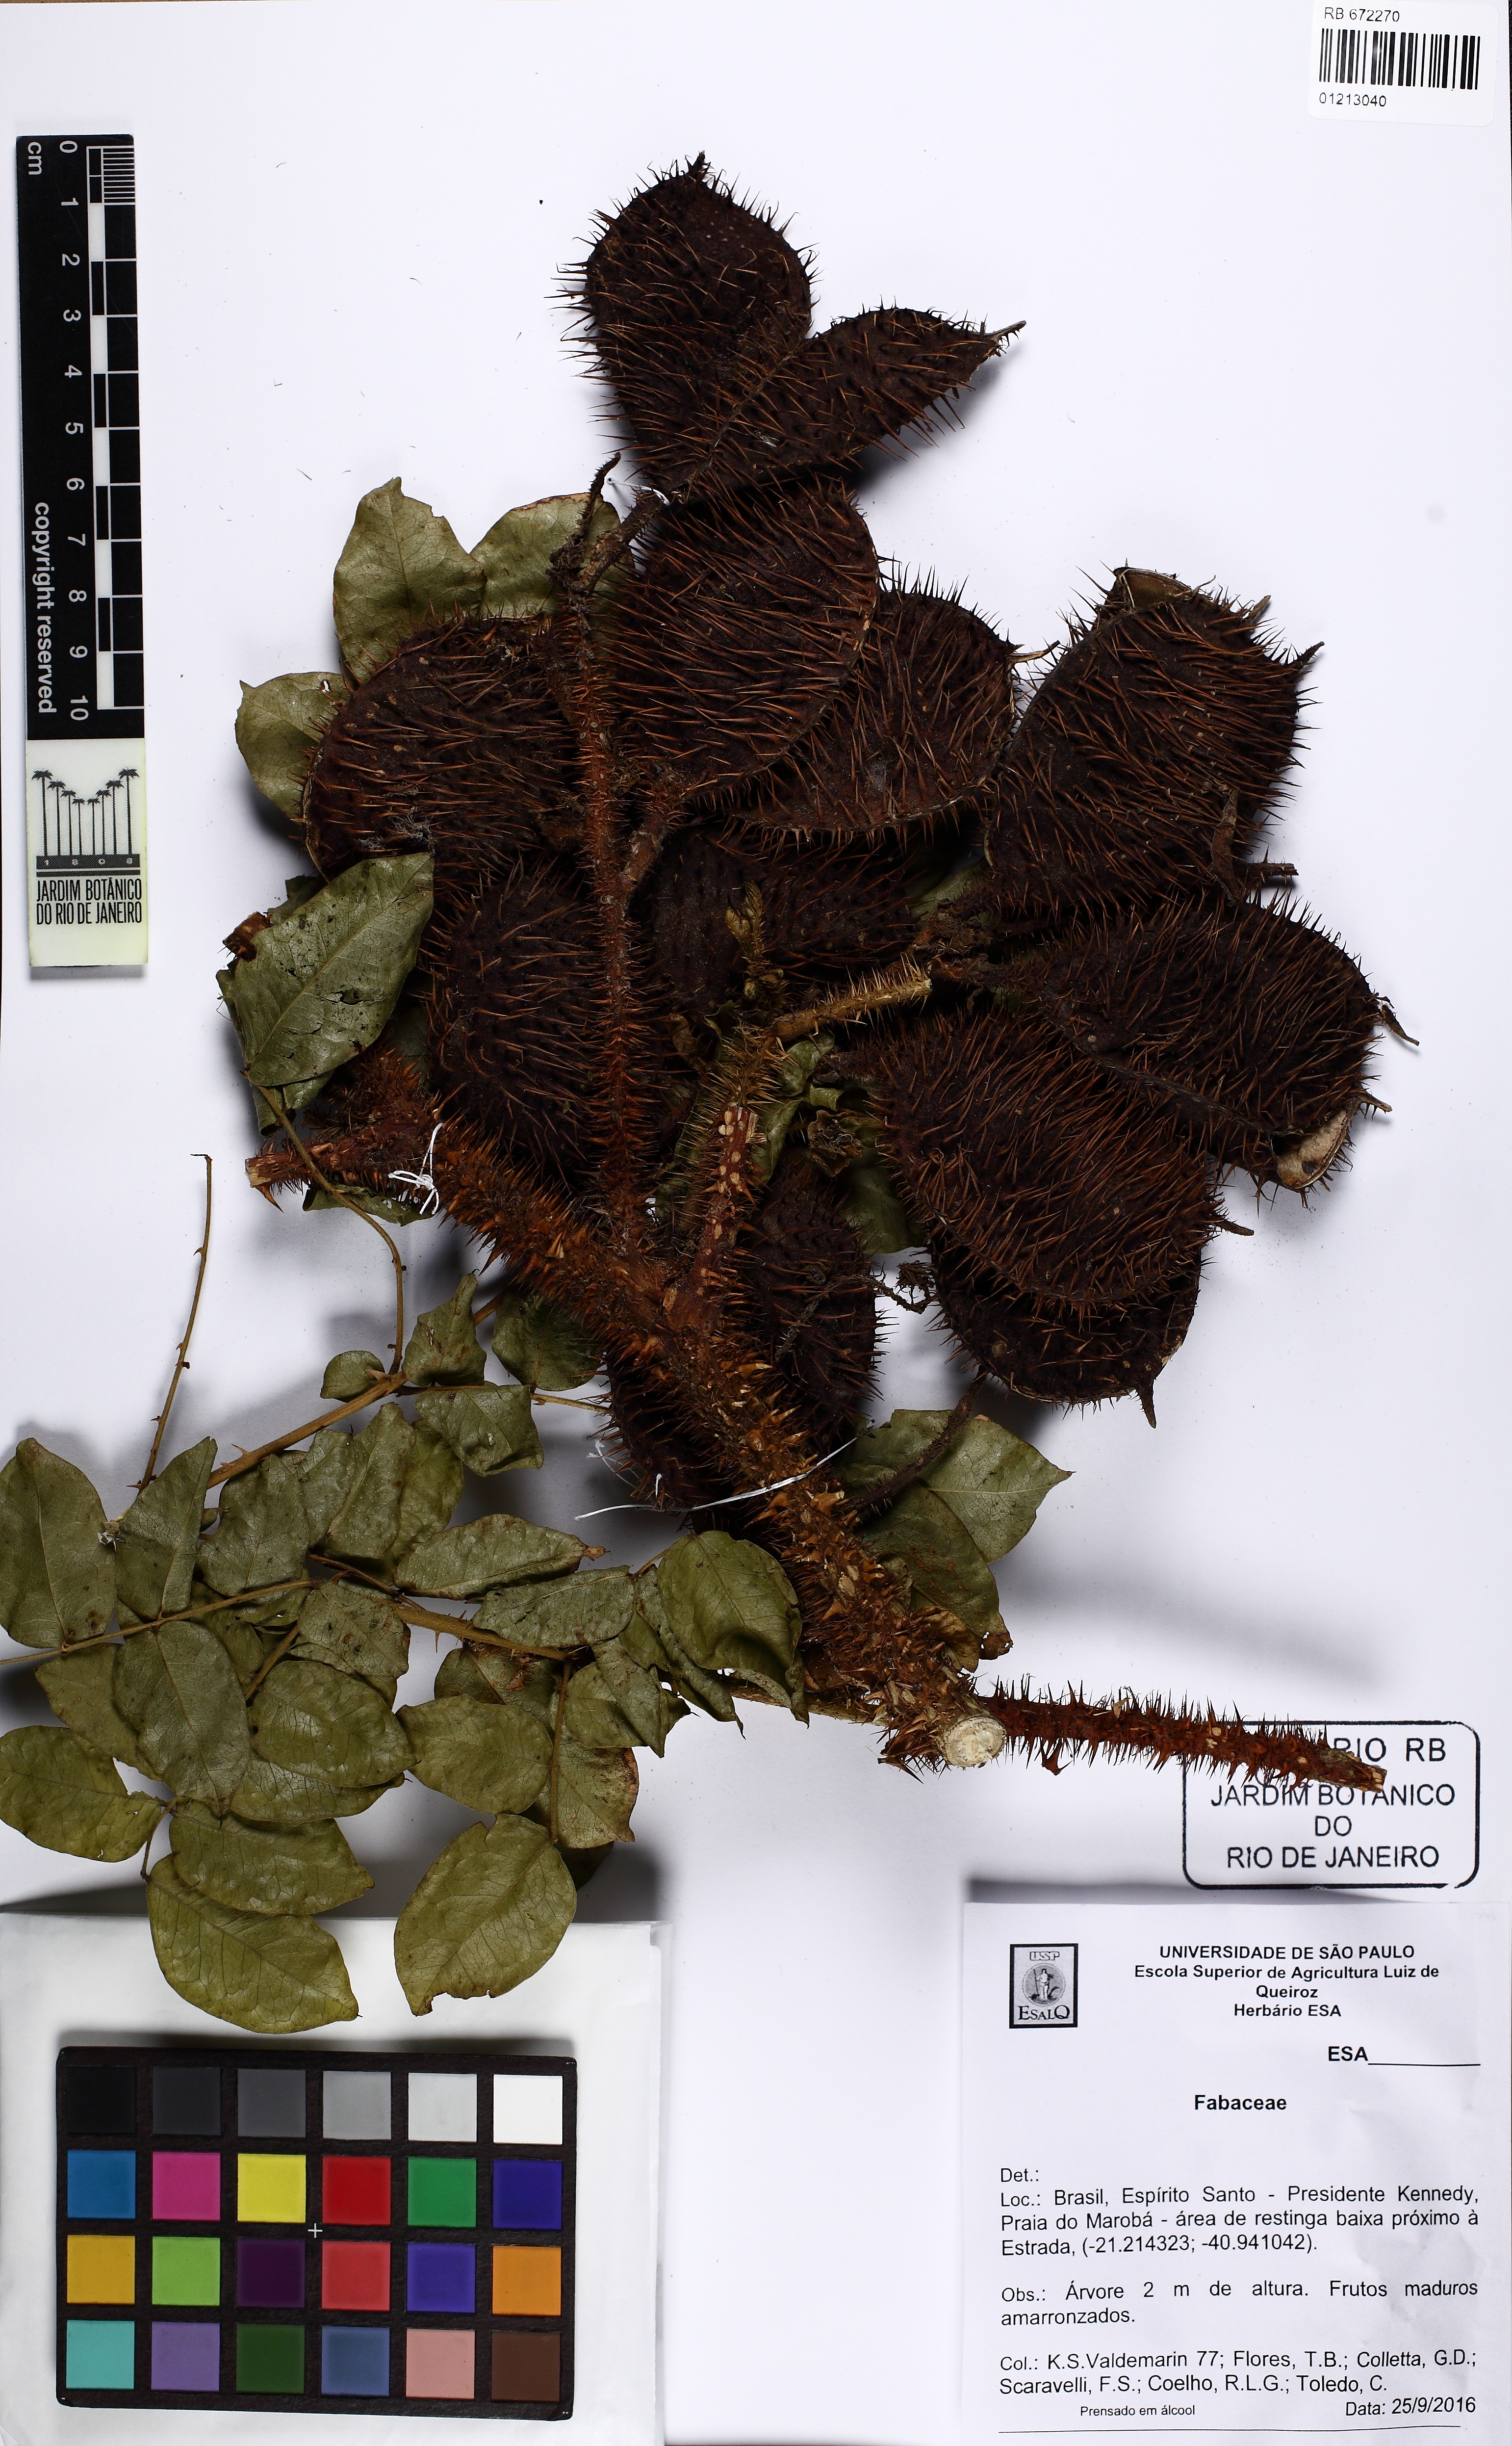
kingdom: Plantae
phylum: Tracheophyta
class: Magnoliopsida
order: Fabales
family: Fabaceae
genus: Guilandina
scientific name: Guilandina bonduc
